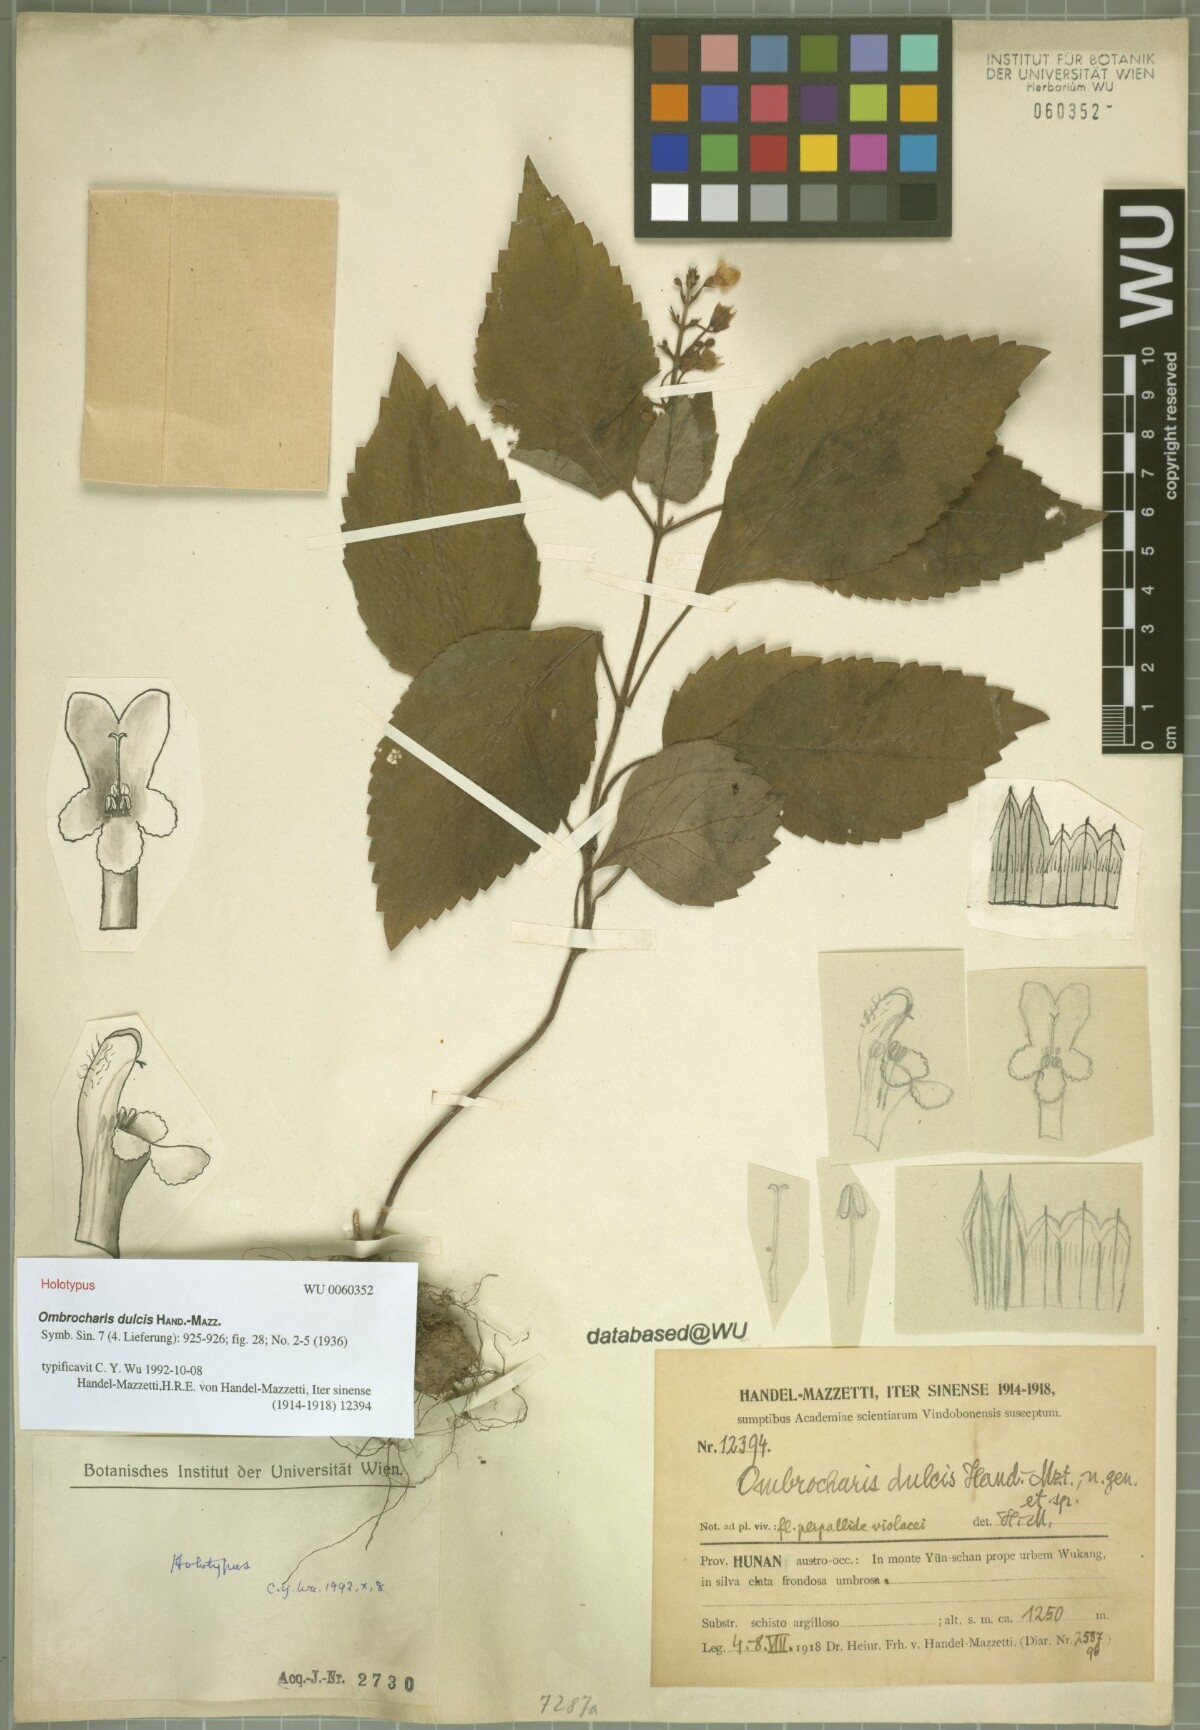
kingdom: Plantae
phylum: Tracheophyta
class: Magnoliopsida
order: Lamiales
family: Lamiaceae
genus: Ombrocharis
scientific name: Ombrocharis dulcis
